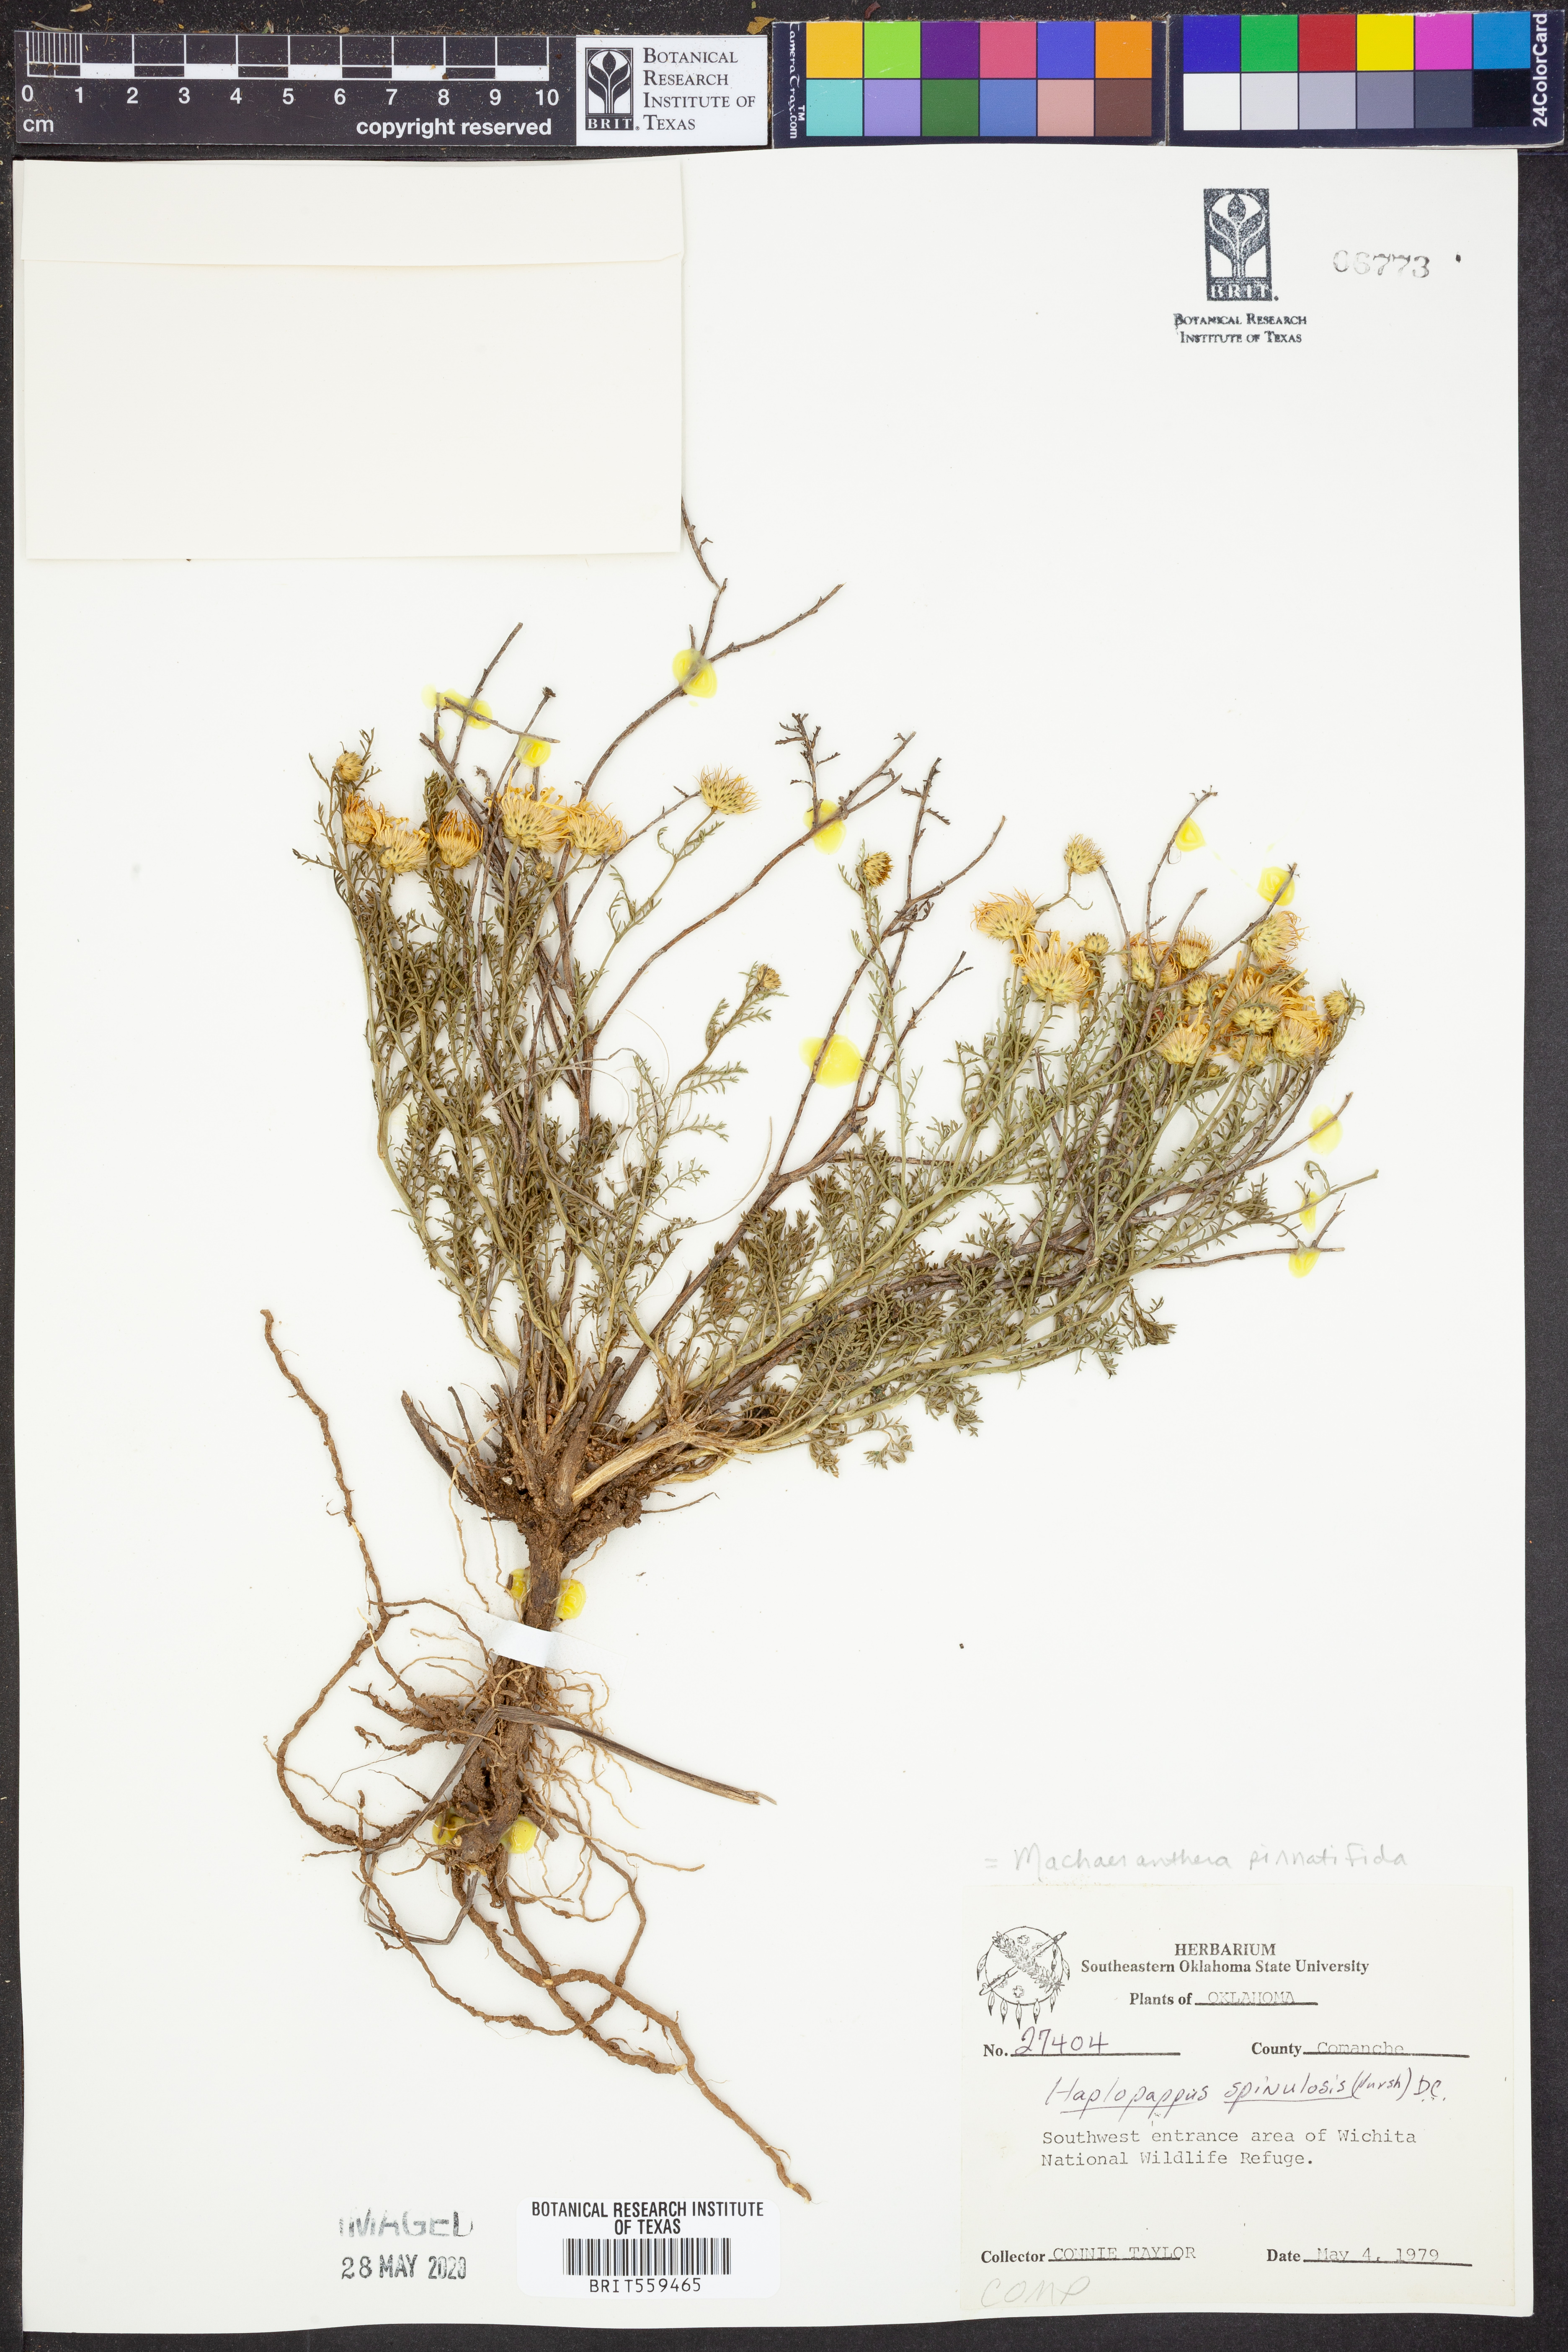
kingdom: Plantae
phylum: Tracheophyta
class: Magnoliopsida
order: Asterales
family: Asteraceae
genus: Xanthisma
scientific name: Xanthisma spinulosum
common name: Spiny goldenweed
